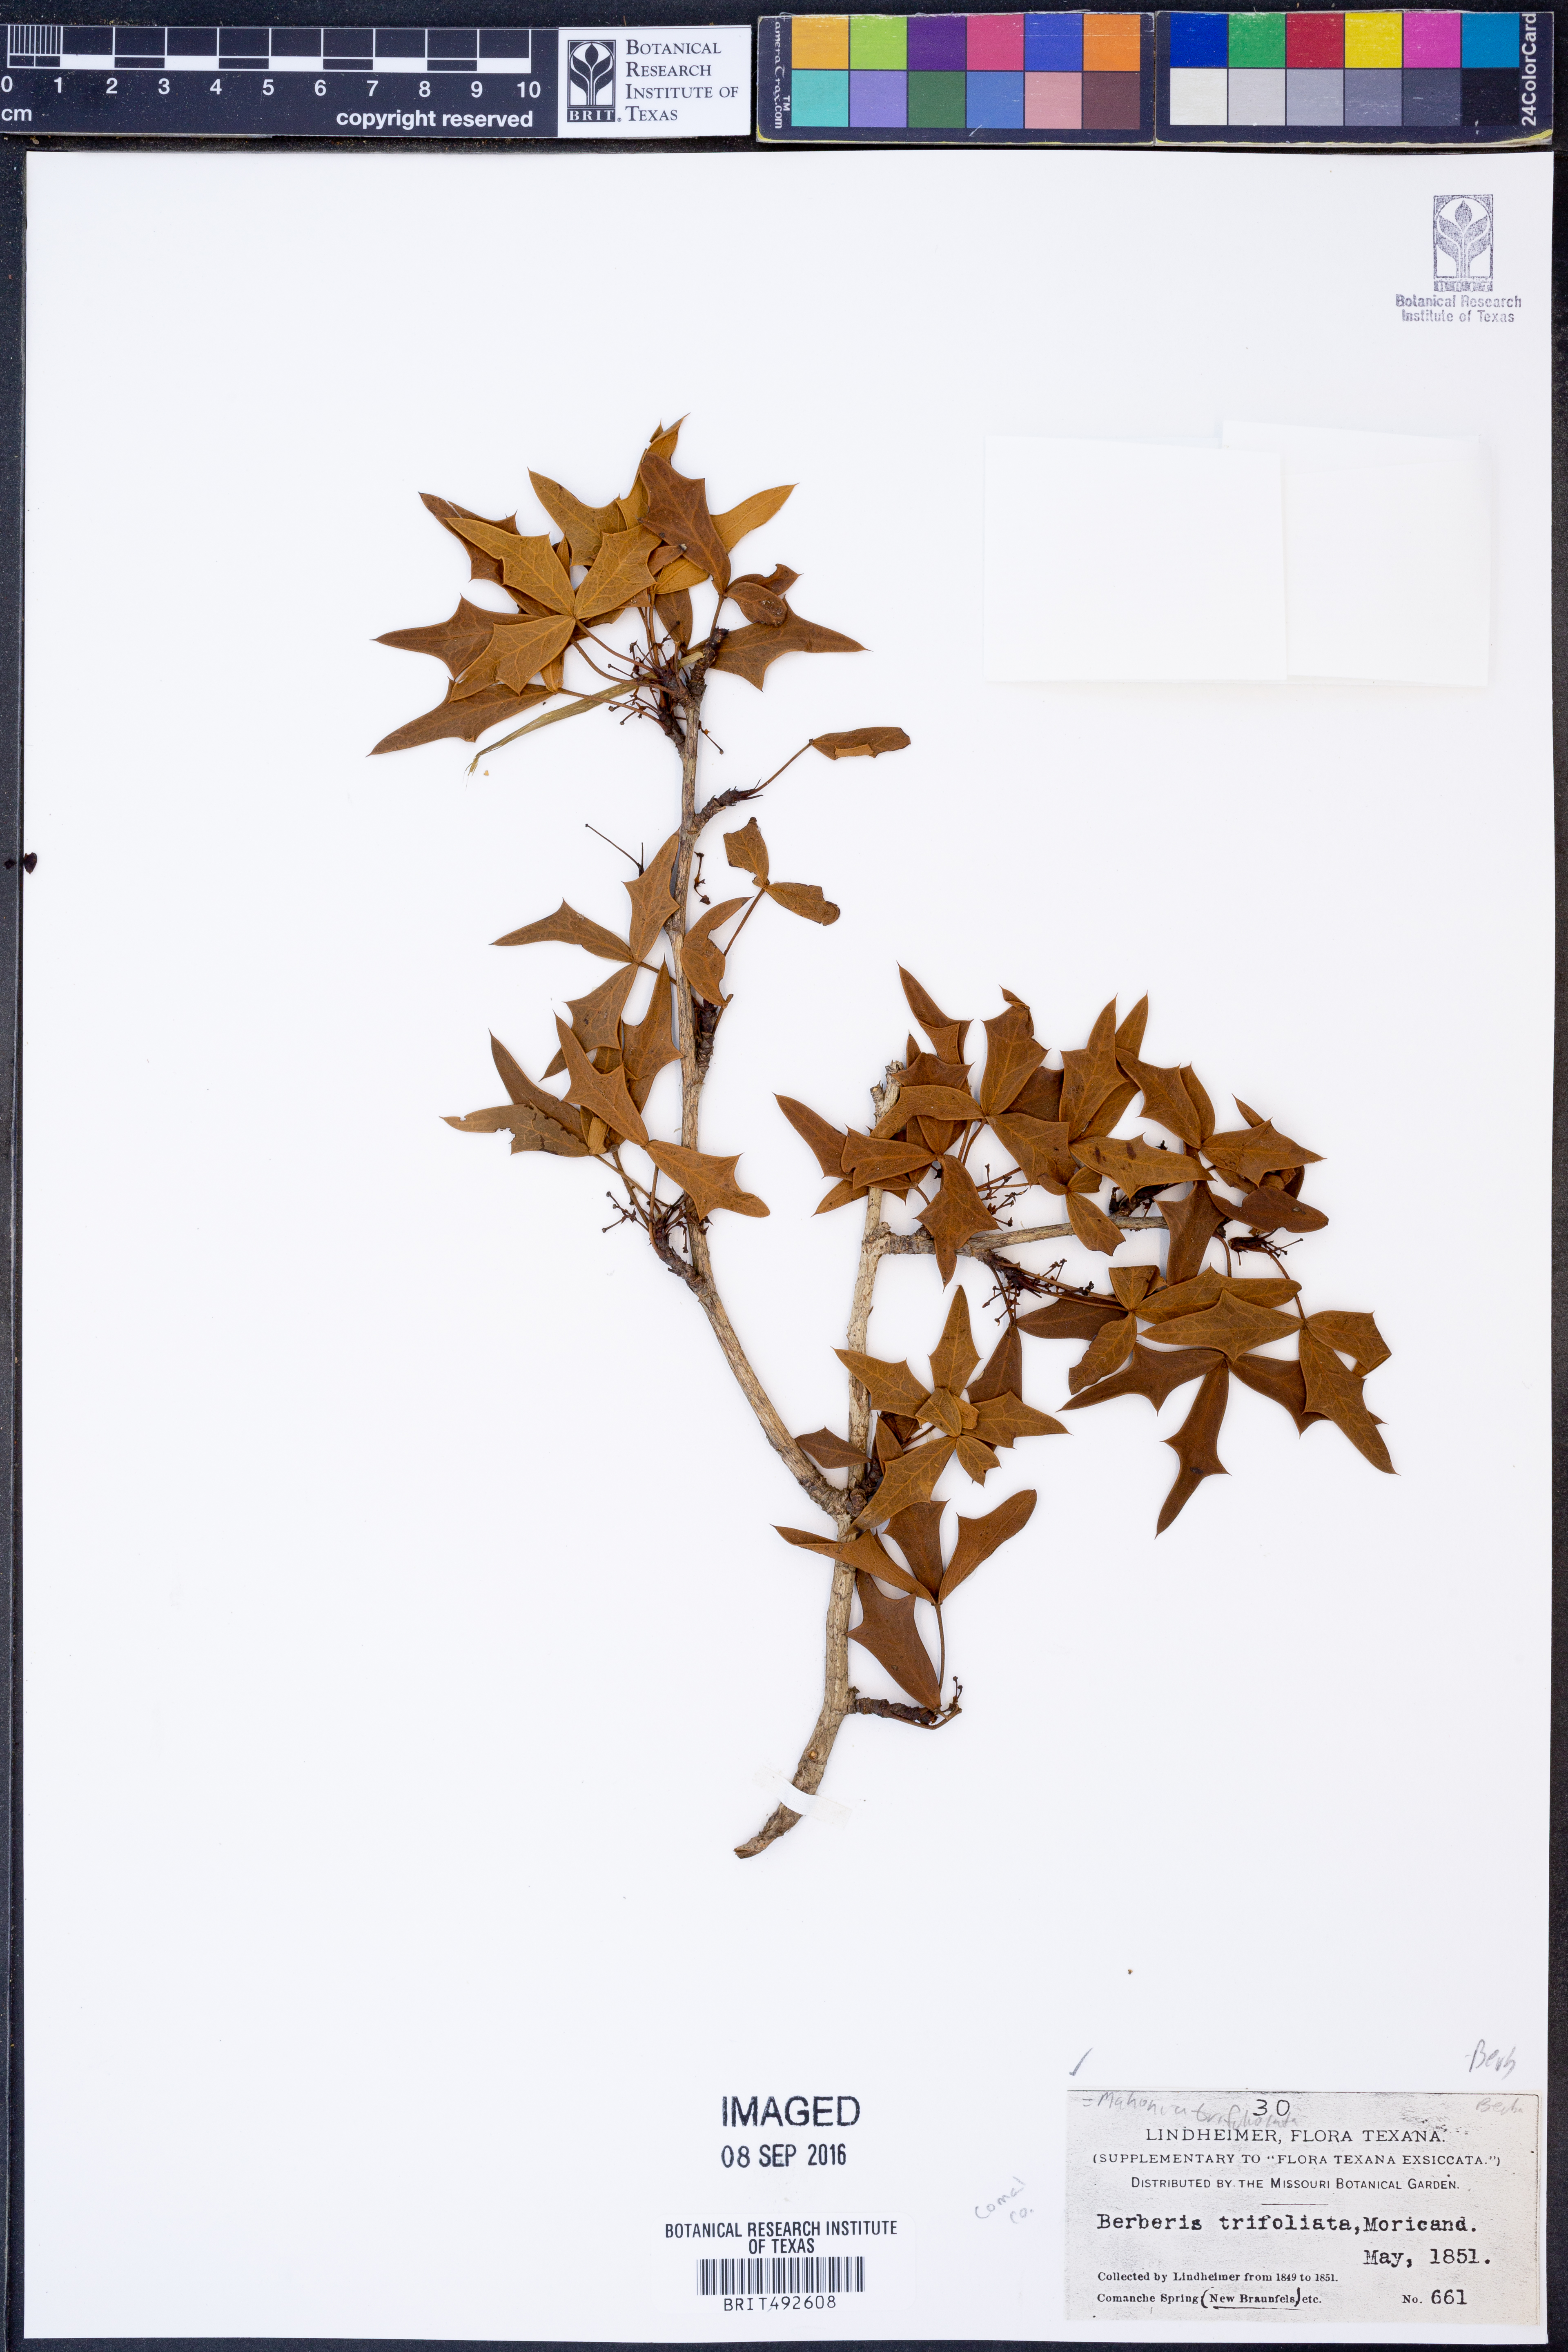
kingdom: Plantae
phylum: Tracheophyta
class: Magnoliopsida
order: Ranunculales
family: Berberidaceae
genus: Alloberberis
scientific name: Alloberberis trifoliolata
